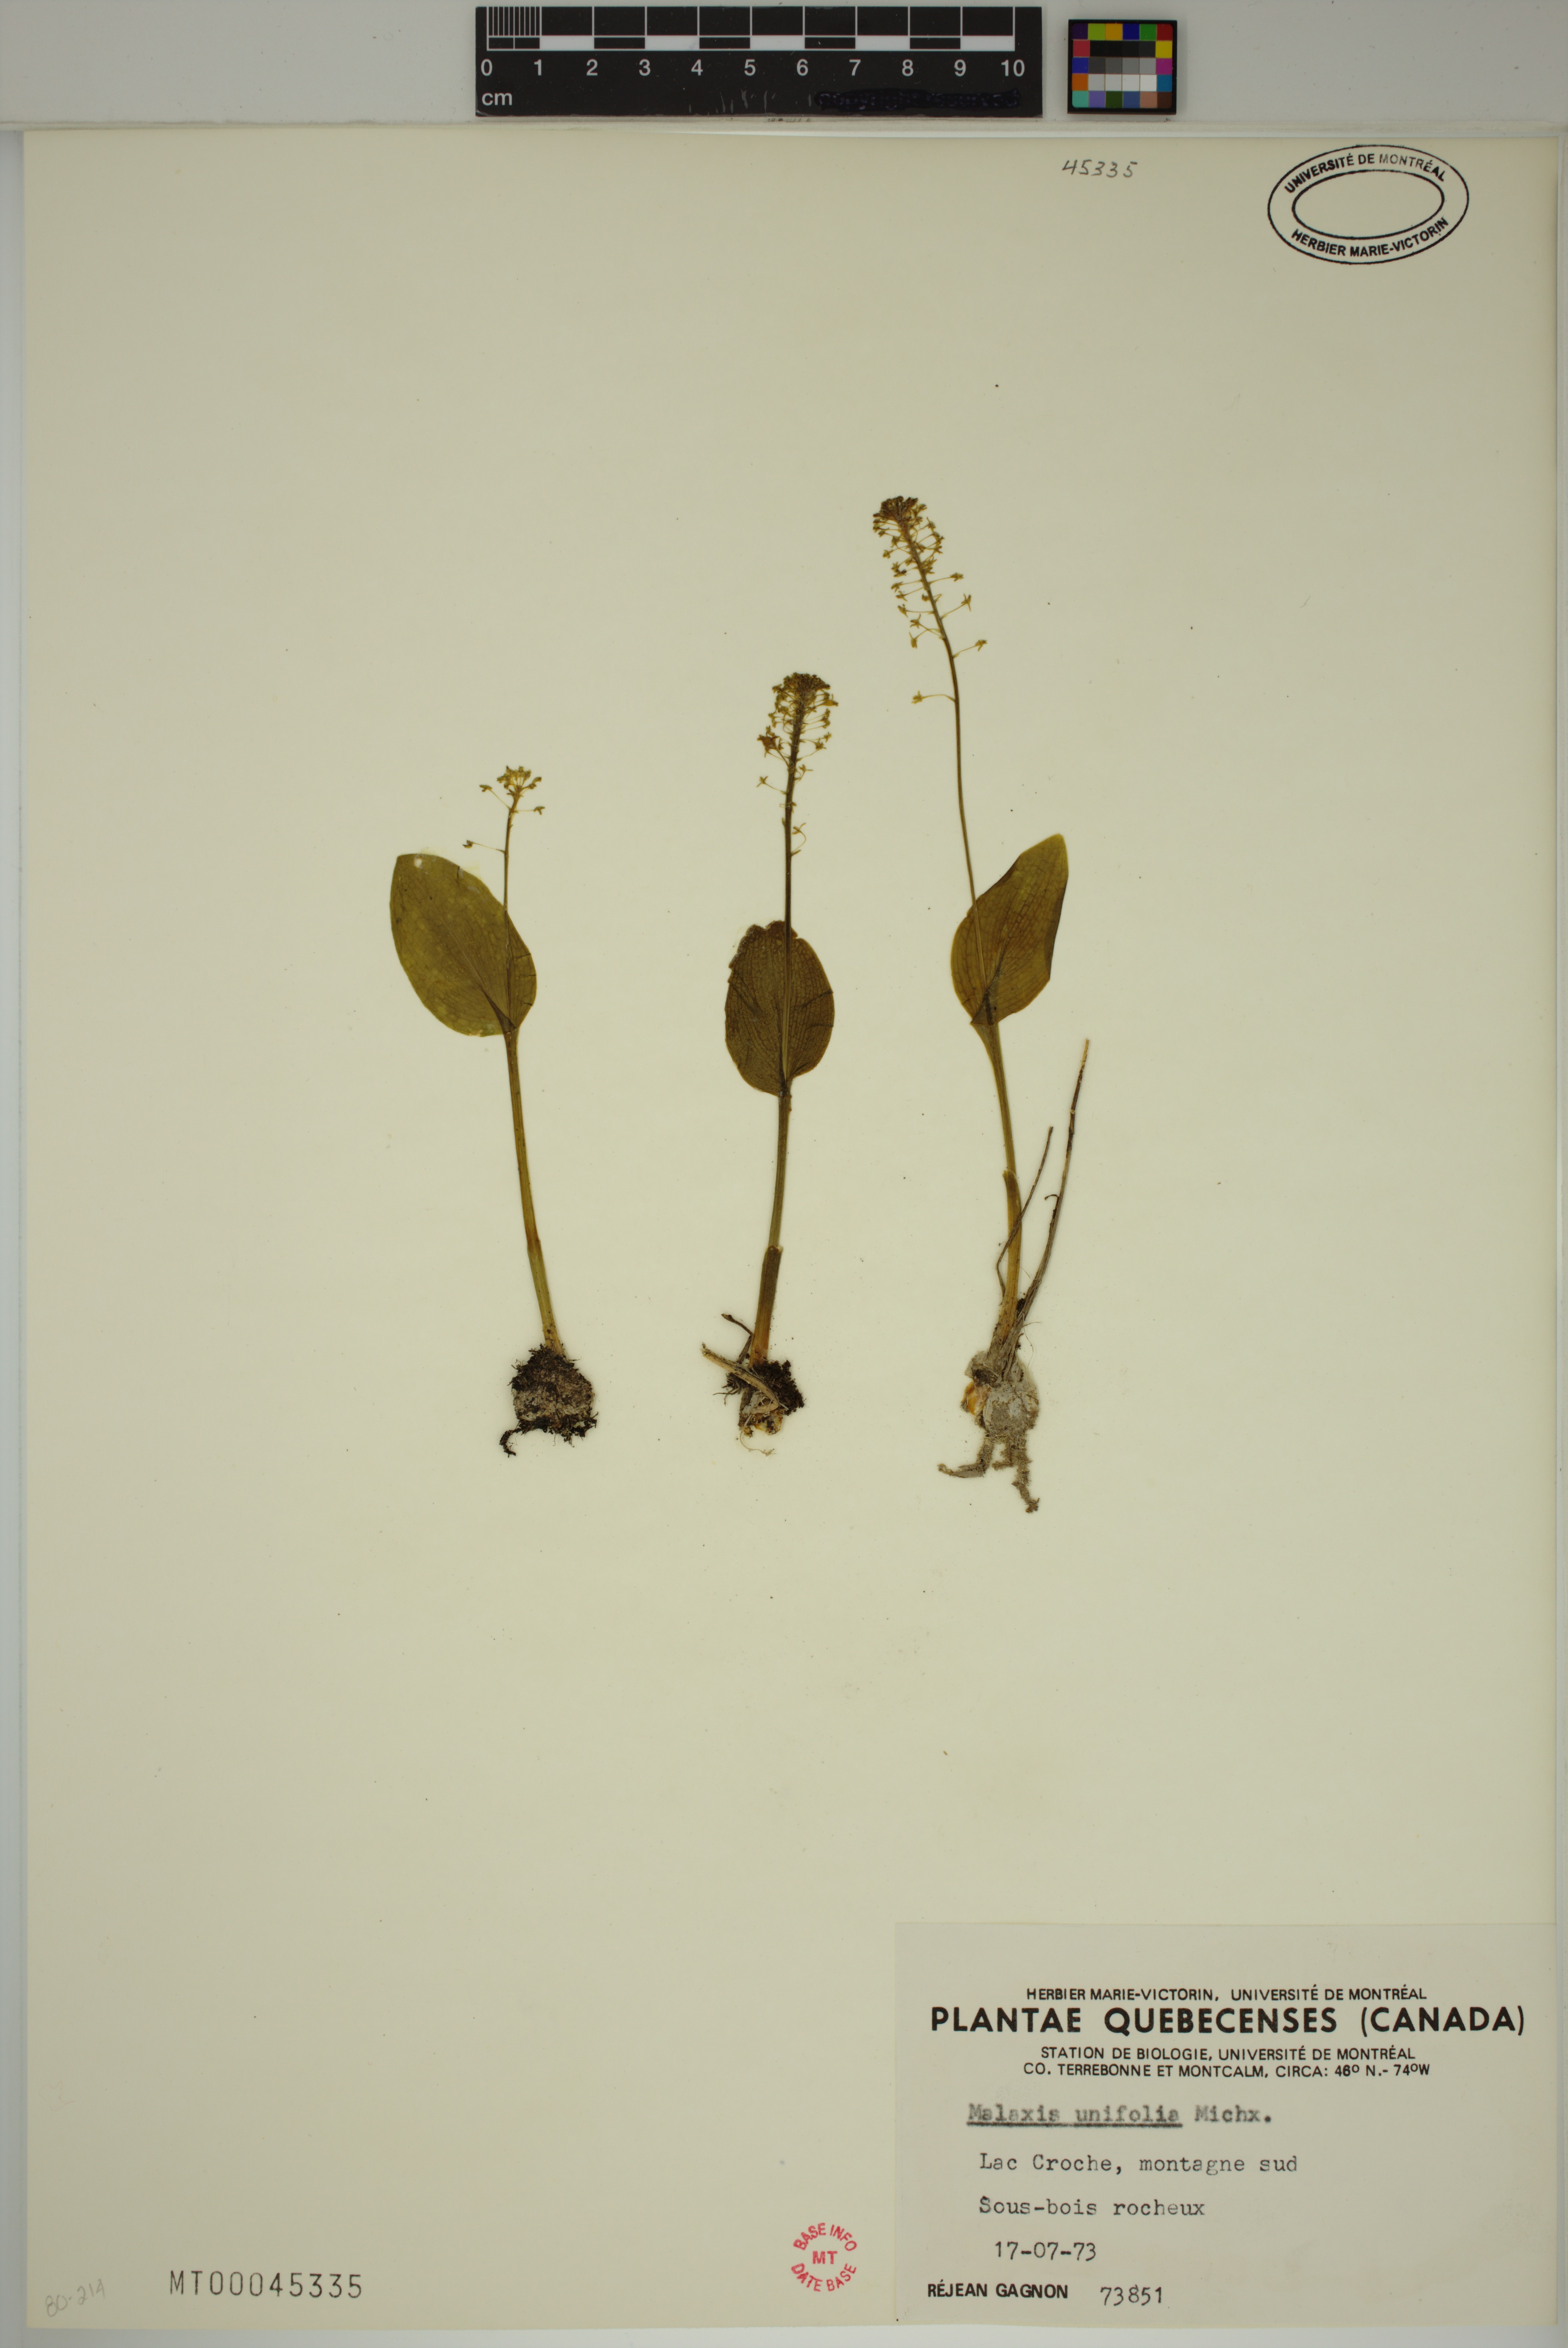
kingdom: Plantae
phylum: Tracheophyta
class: Liliopsida
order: Asparagales
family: Orchidaceae
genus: Malaxis
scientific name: Malaxis unifolia
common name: Green adder's-mouth
